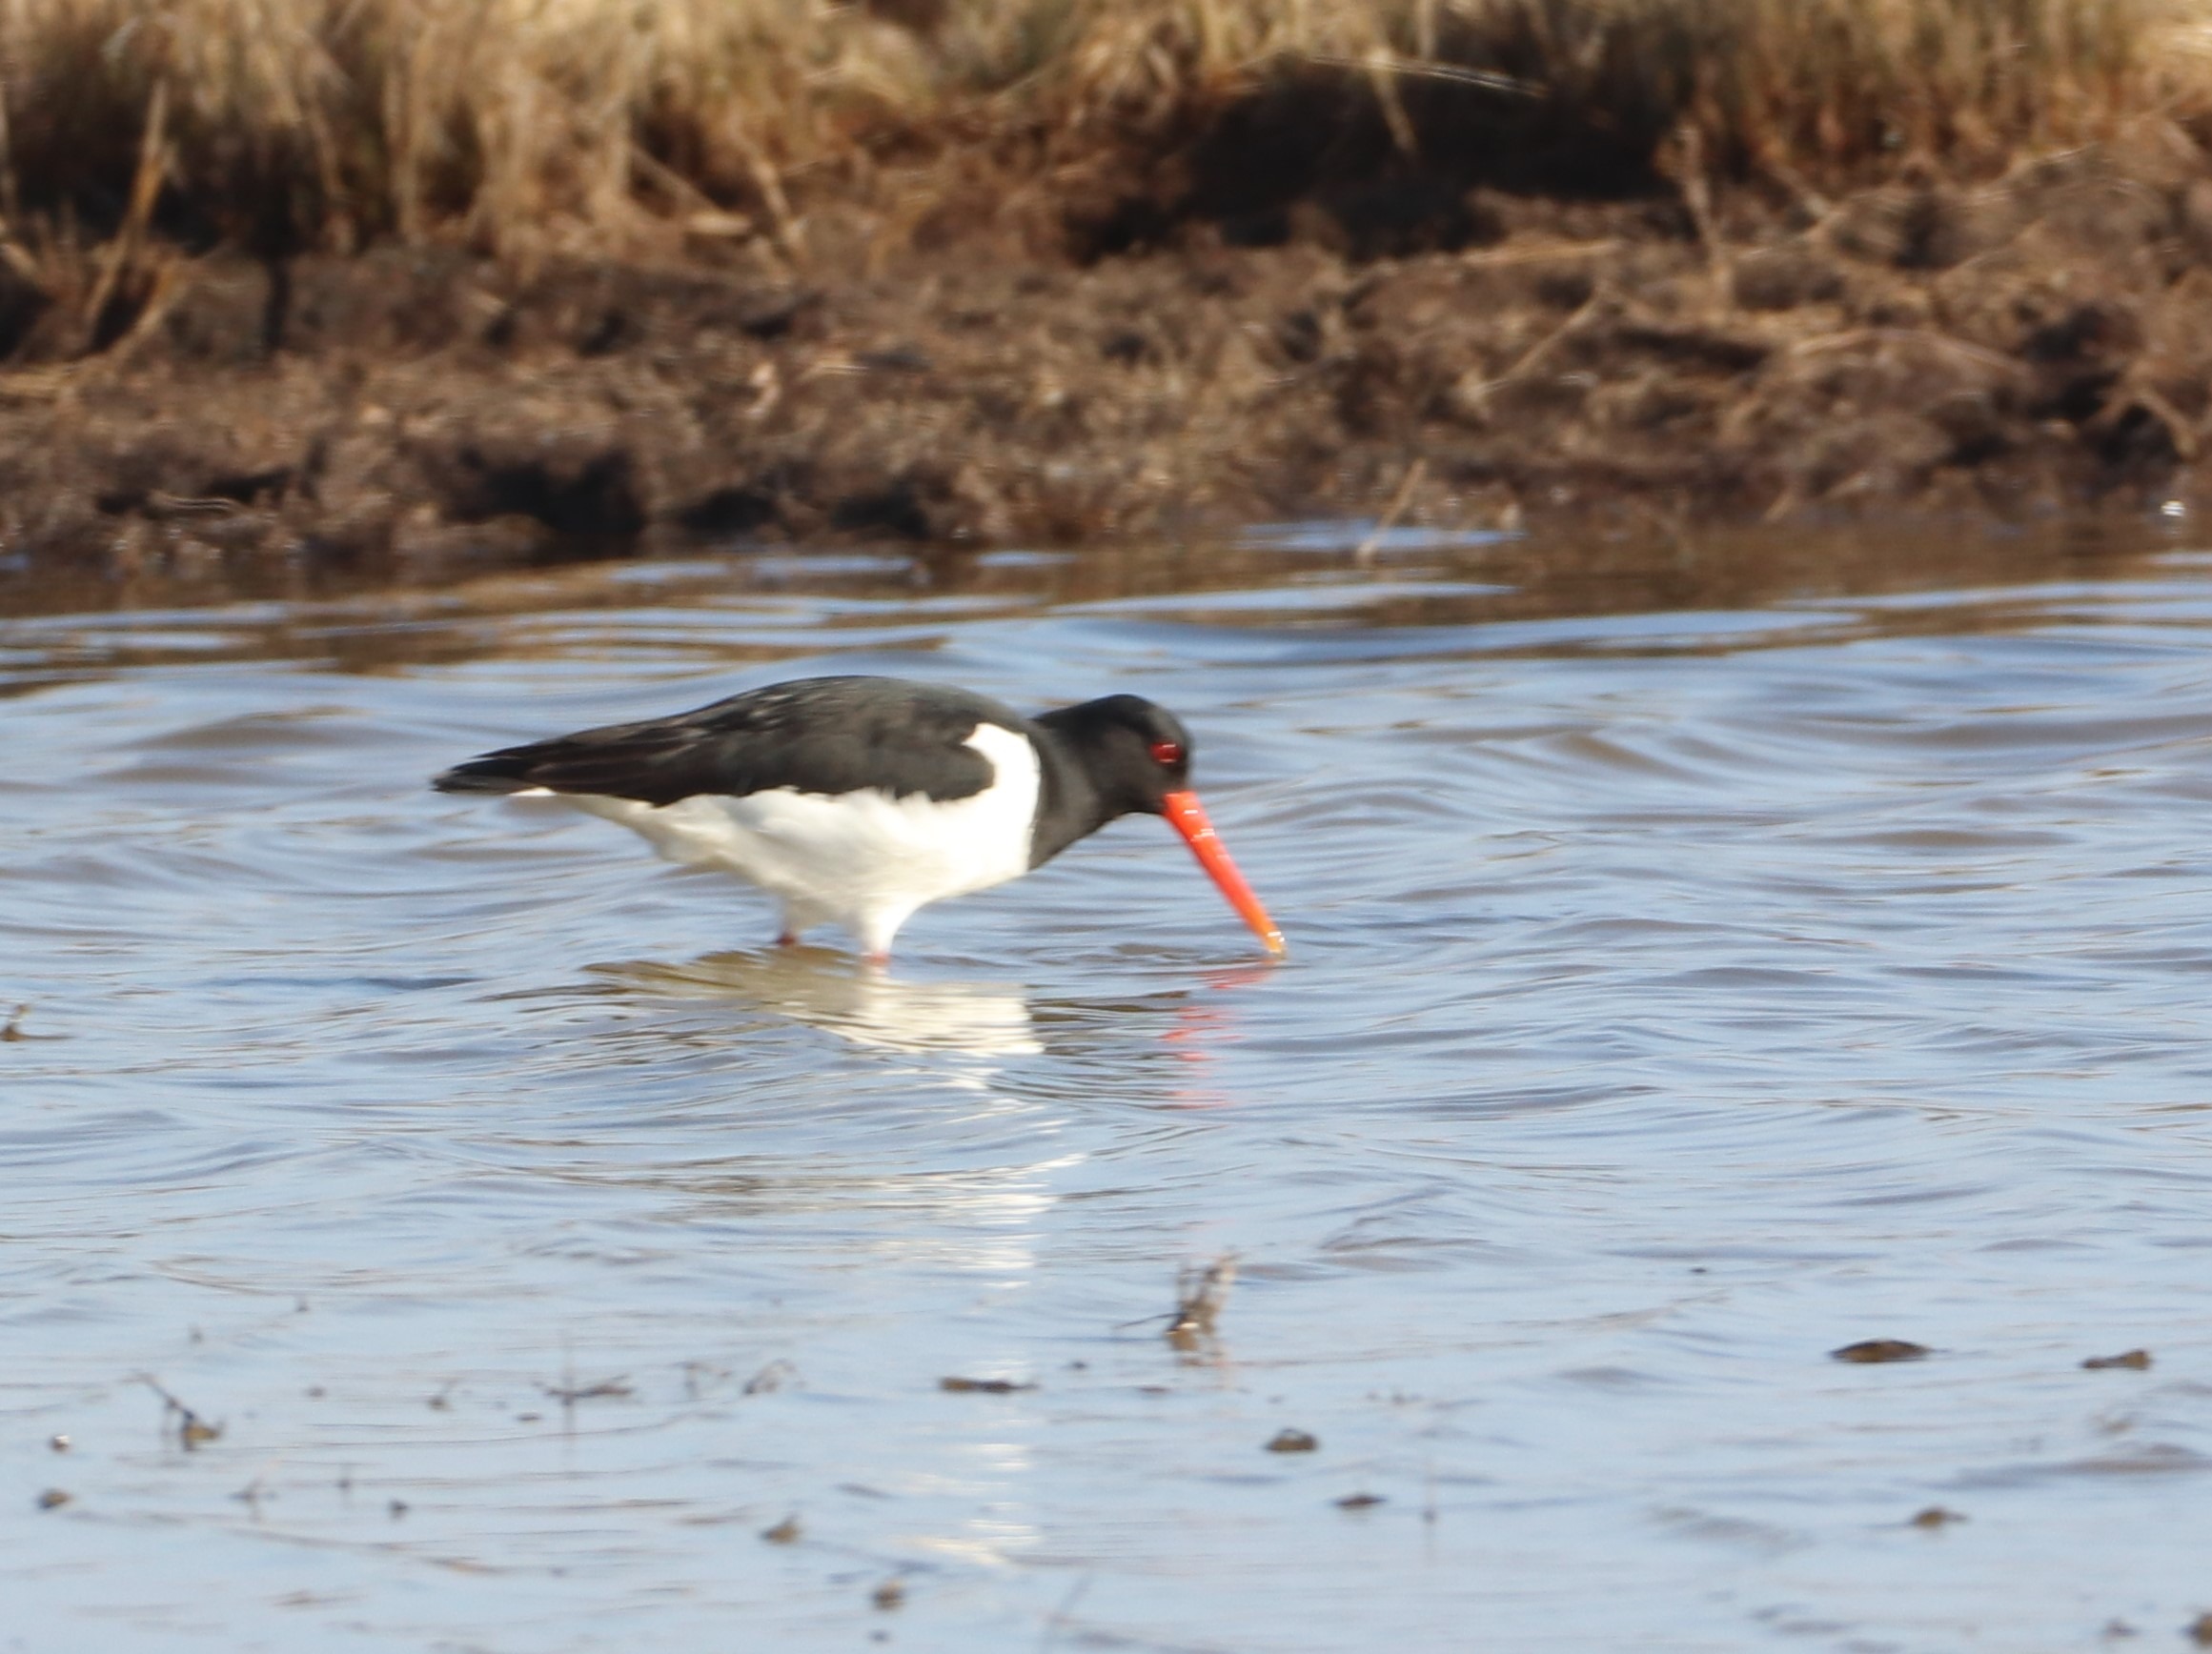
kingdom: Animalia
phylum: Chordata
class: Aves
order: Charadriiformes
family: Haematopodidae
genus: Haematopus
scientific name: Haematopus ostralegus
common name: Strandskade
